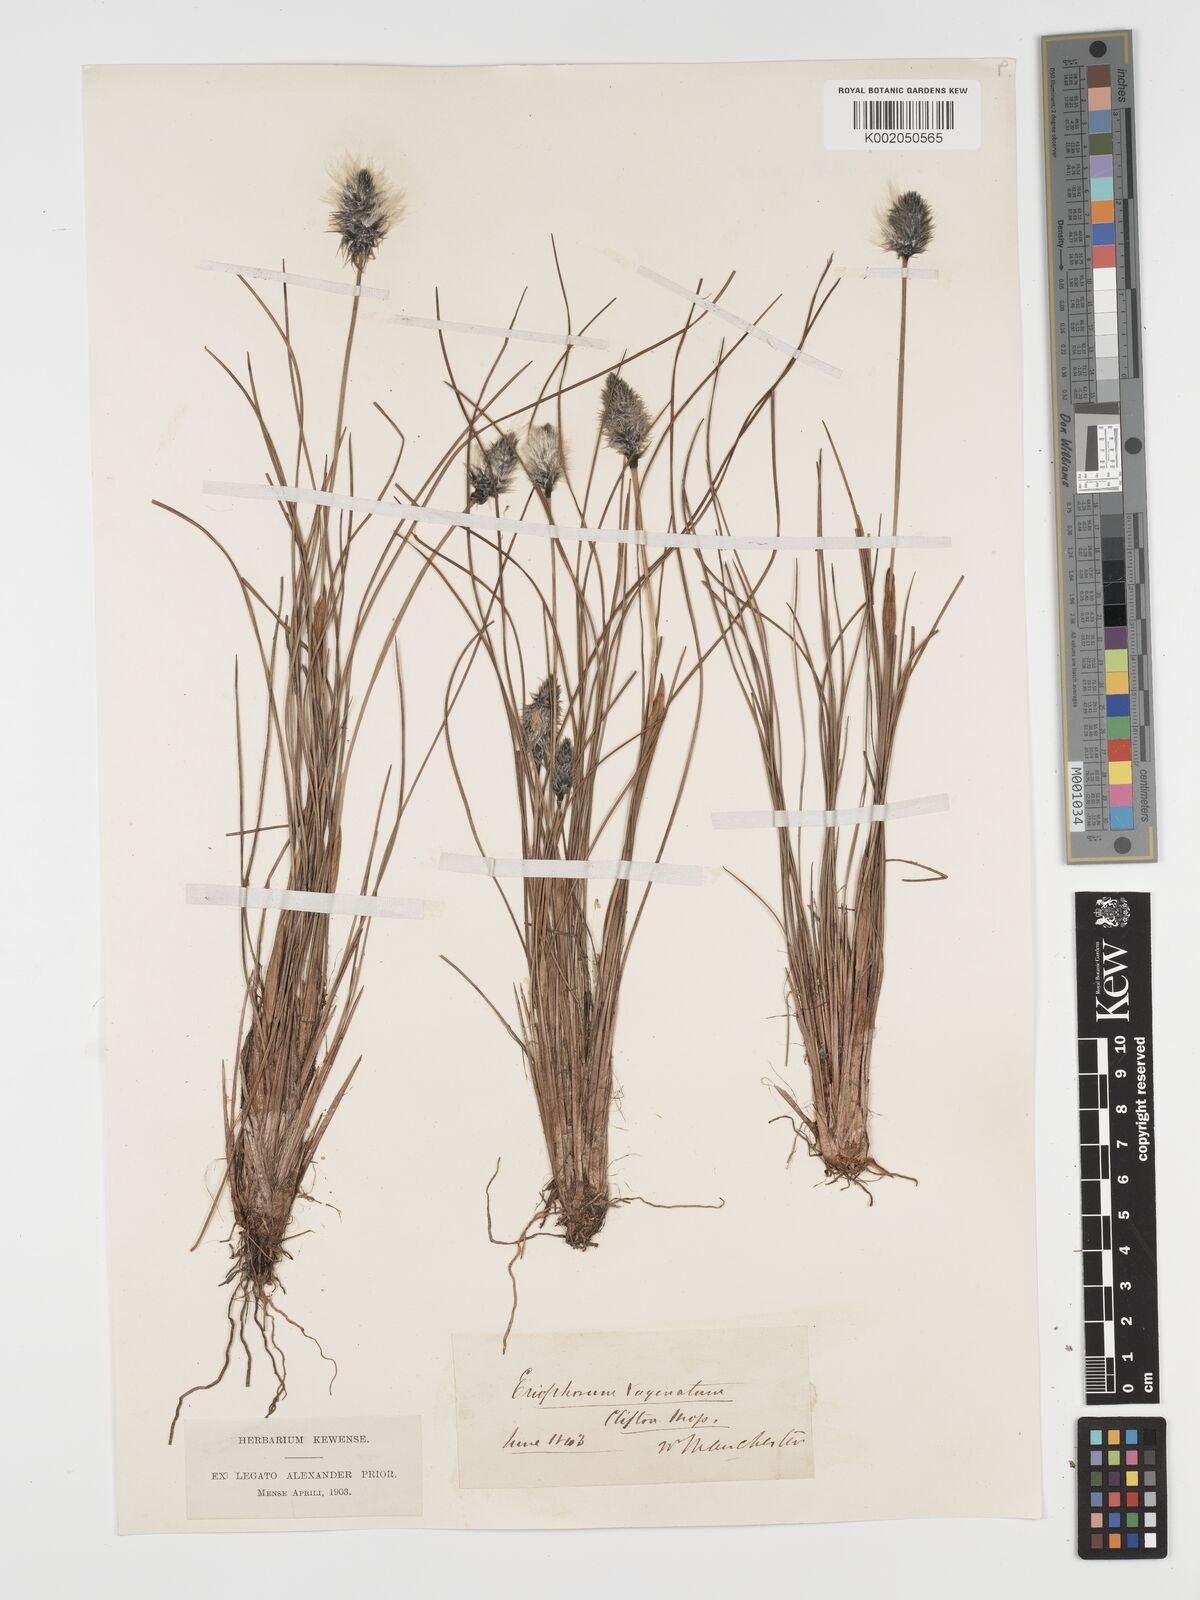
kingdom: Plantae
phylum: Tracheophyta
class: Liliopsida
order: Poales
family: Cyperaceae
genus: Eriophorum
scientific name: Eriophorum vaginatum
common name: Hare's-tail cottongrass
